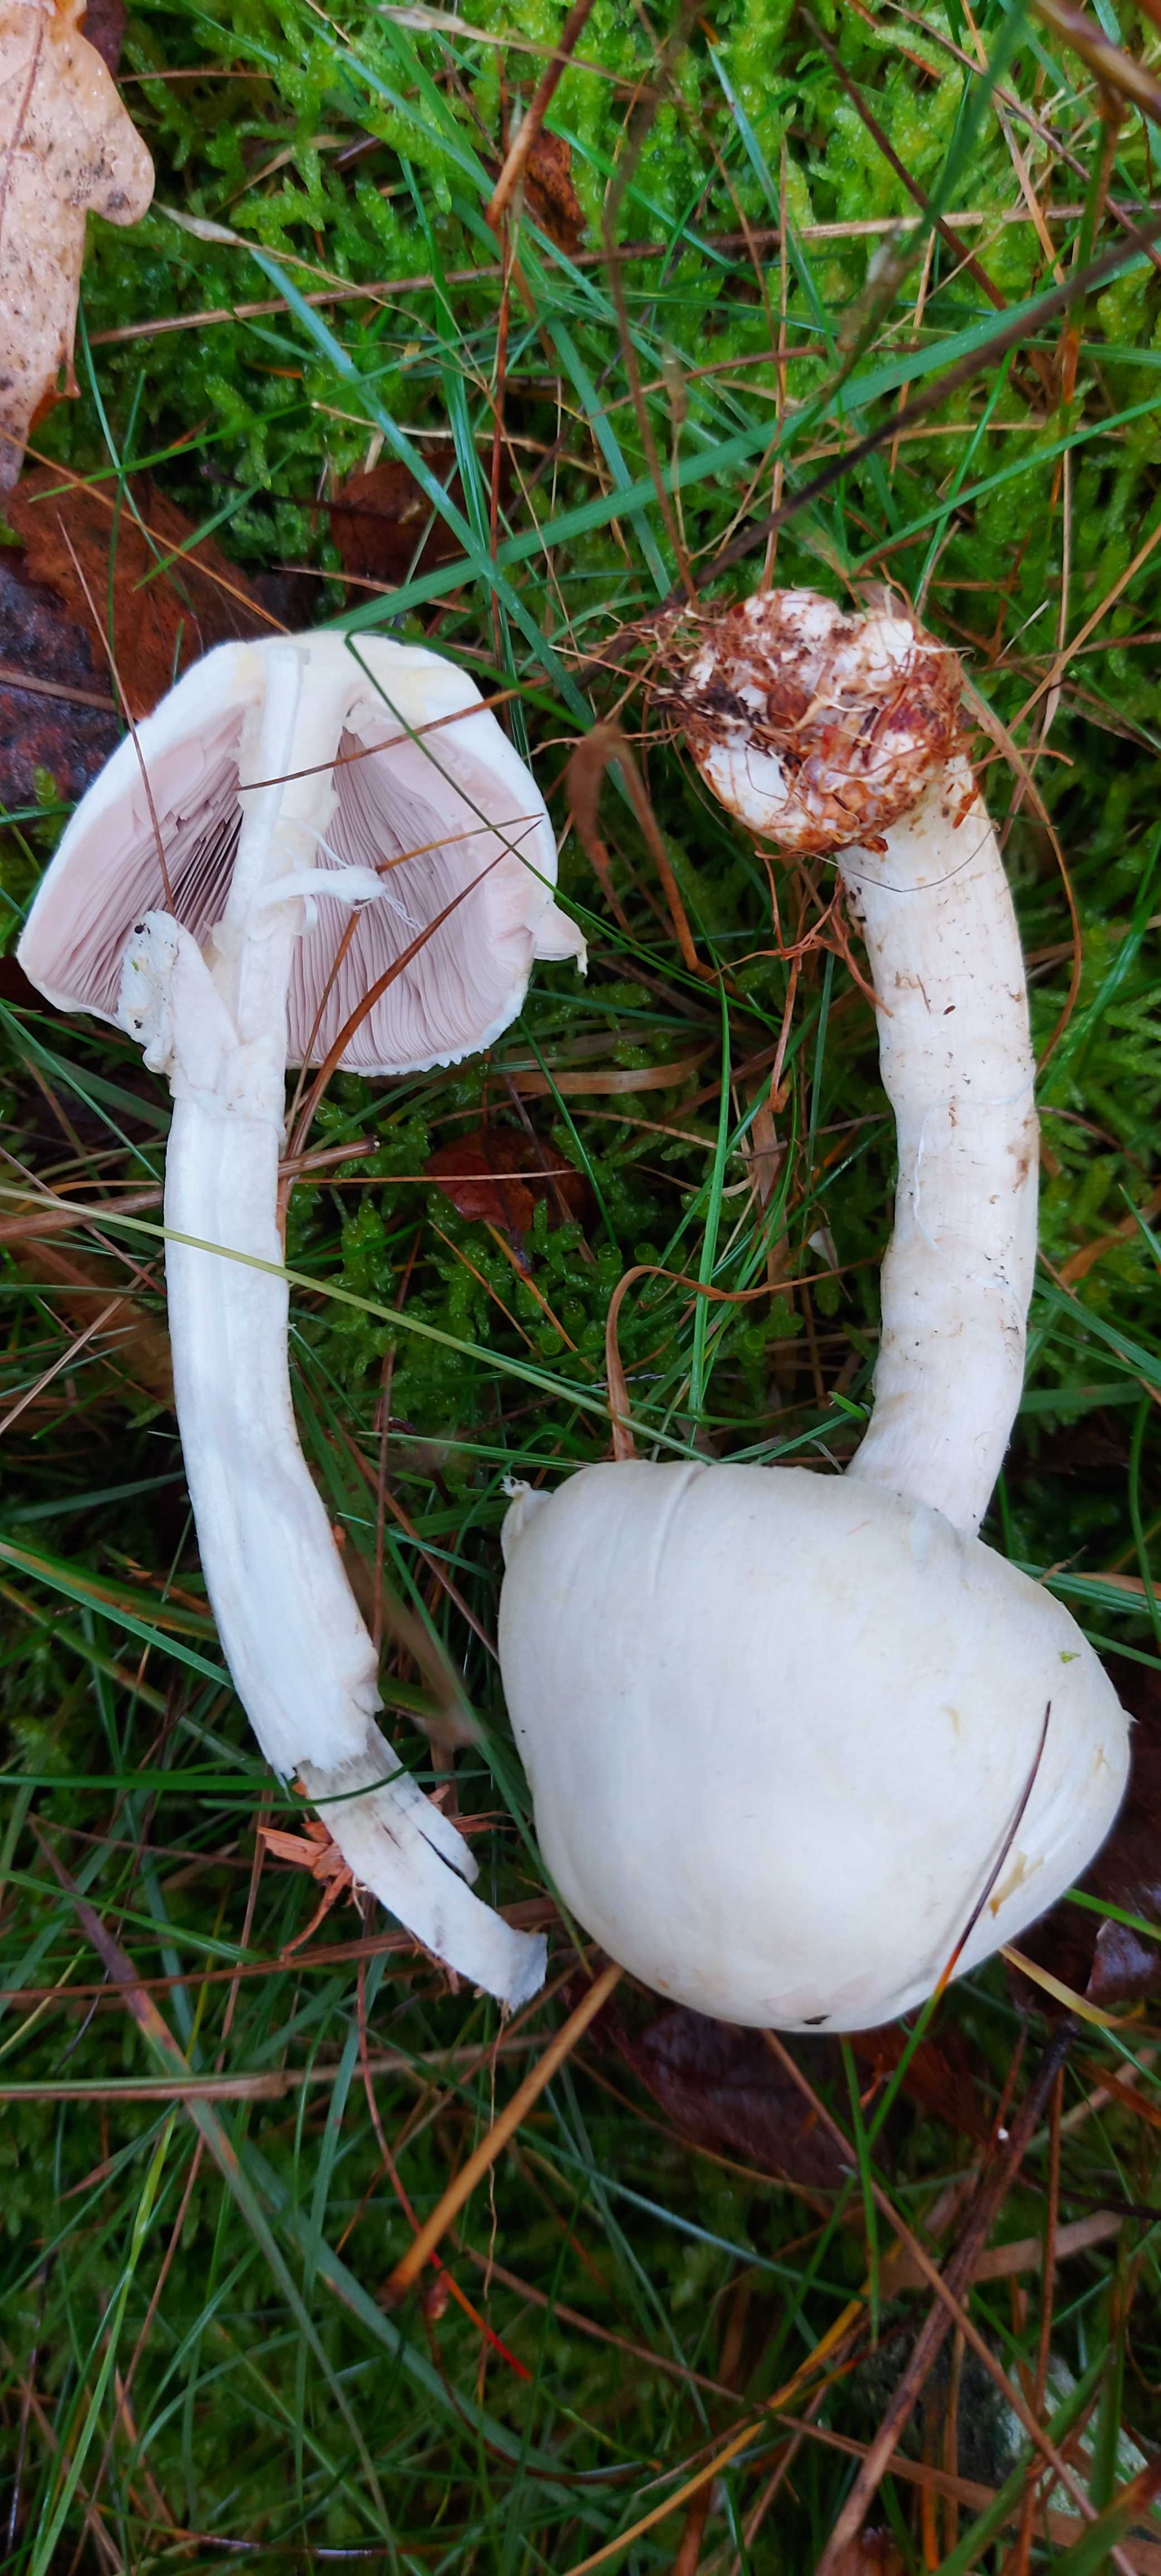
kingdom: Fungi
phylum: Basidiomycota
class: Agaricomycetes
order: Agaricales
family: Agaricaceae
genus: Agaricus
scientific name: Agaricus sylvicola
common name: skiveknoldet champignon
